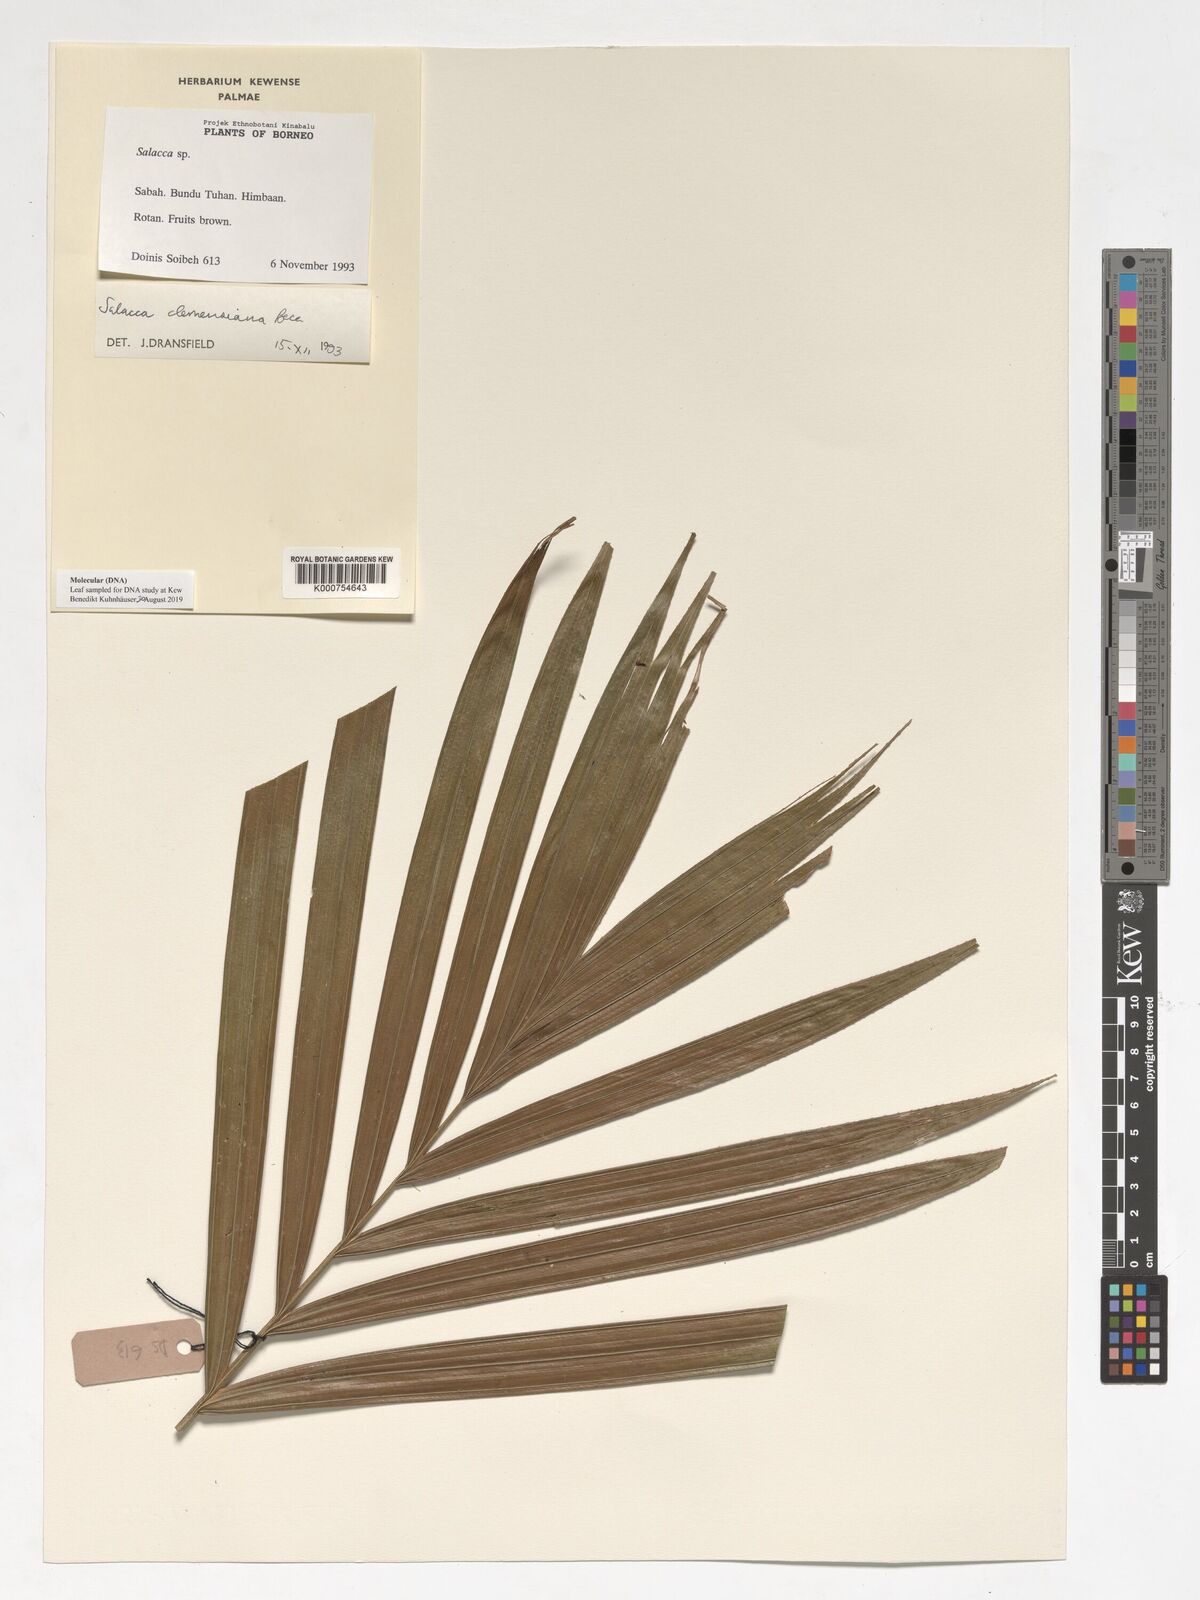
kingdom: Plantae
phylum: Tracheophyta
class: Liliopsida
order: Arecales
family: Arecaceae
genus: Salacca
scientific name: Salacca clemensiana
